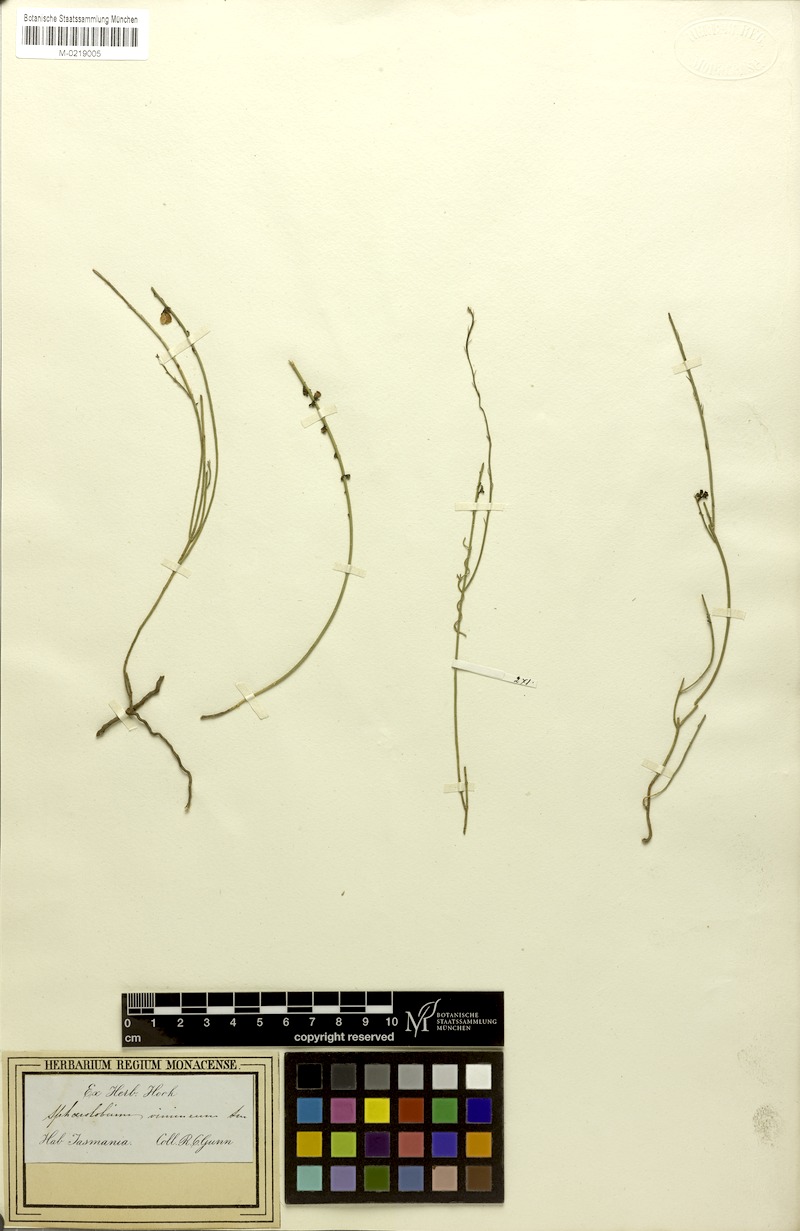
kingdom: Plantae
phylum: Tracheophyta
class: Magnoliopsida
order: Fabales
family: Fabaceae
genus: Sphaerolobium
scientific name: Sphaerolobium vimineum
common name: Leafless globe-pea
